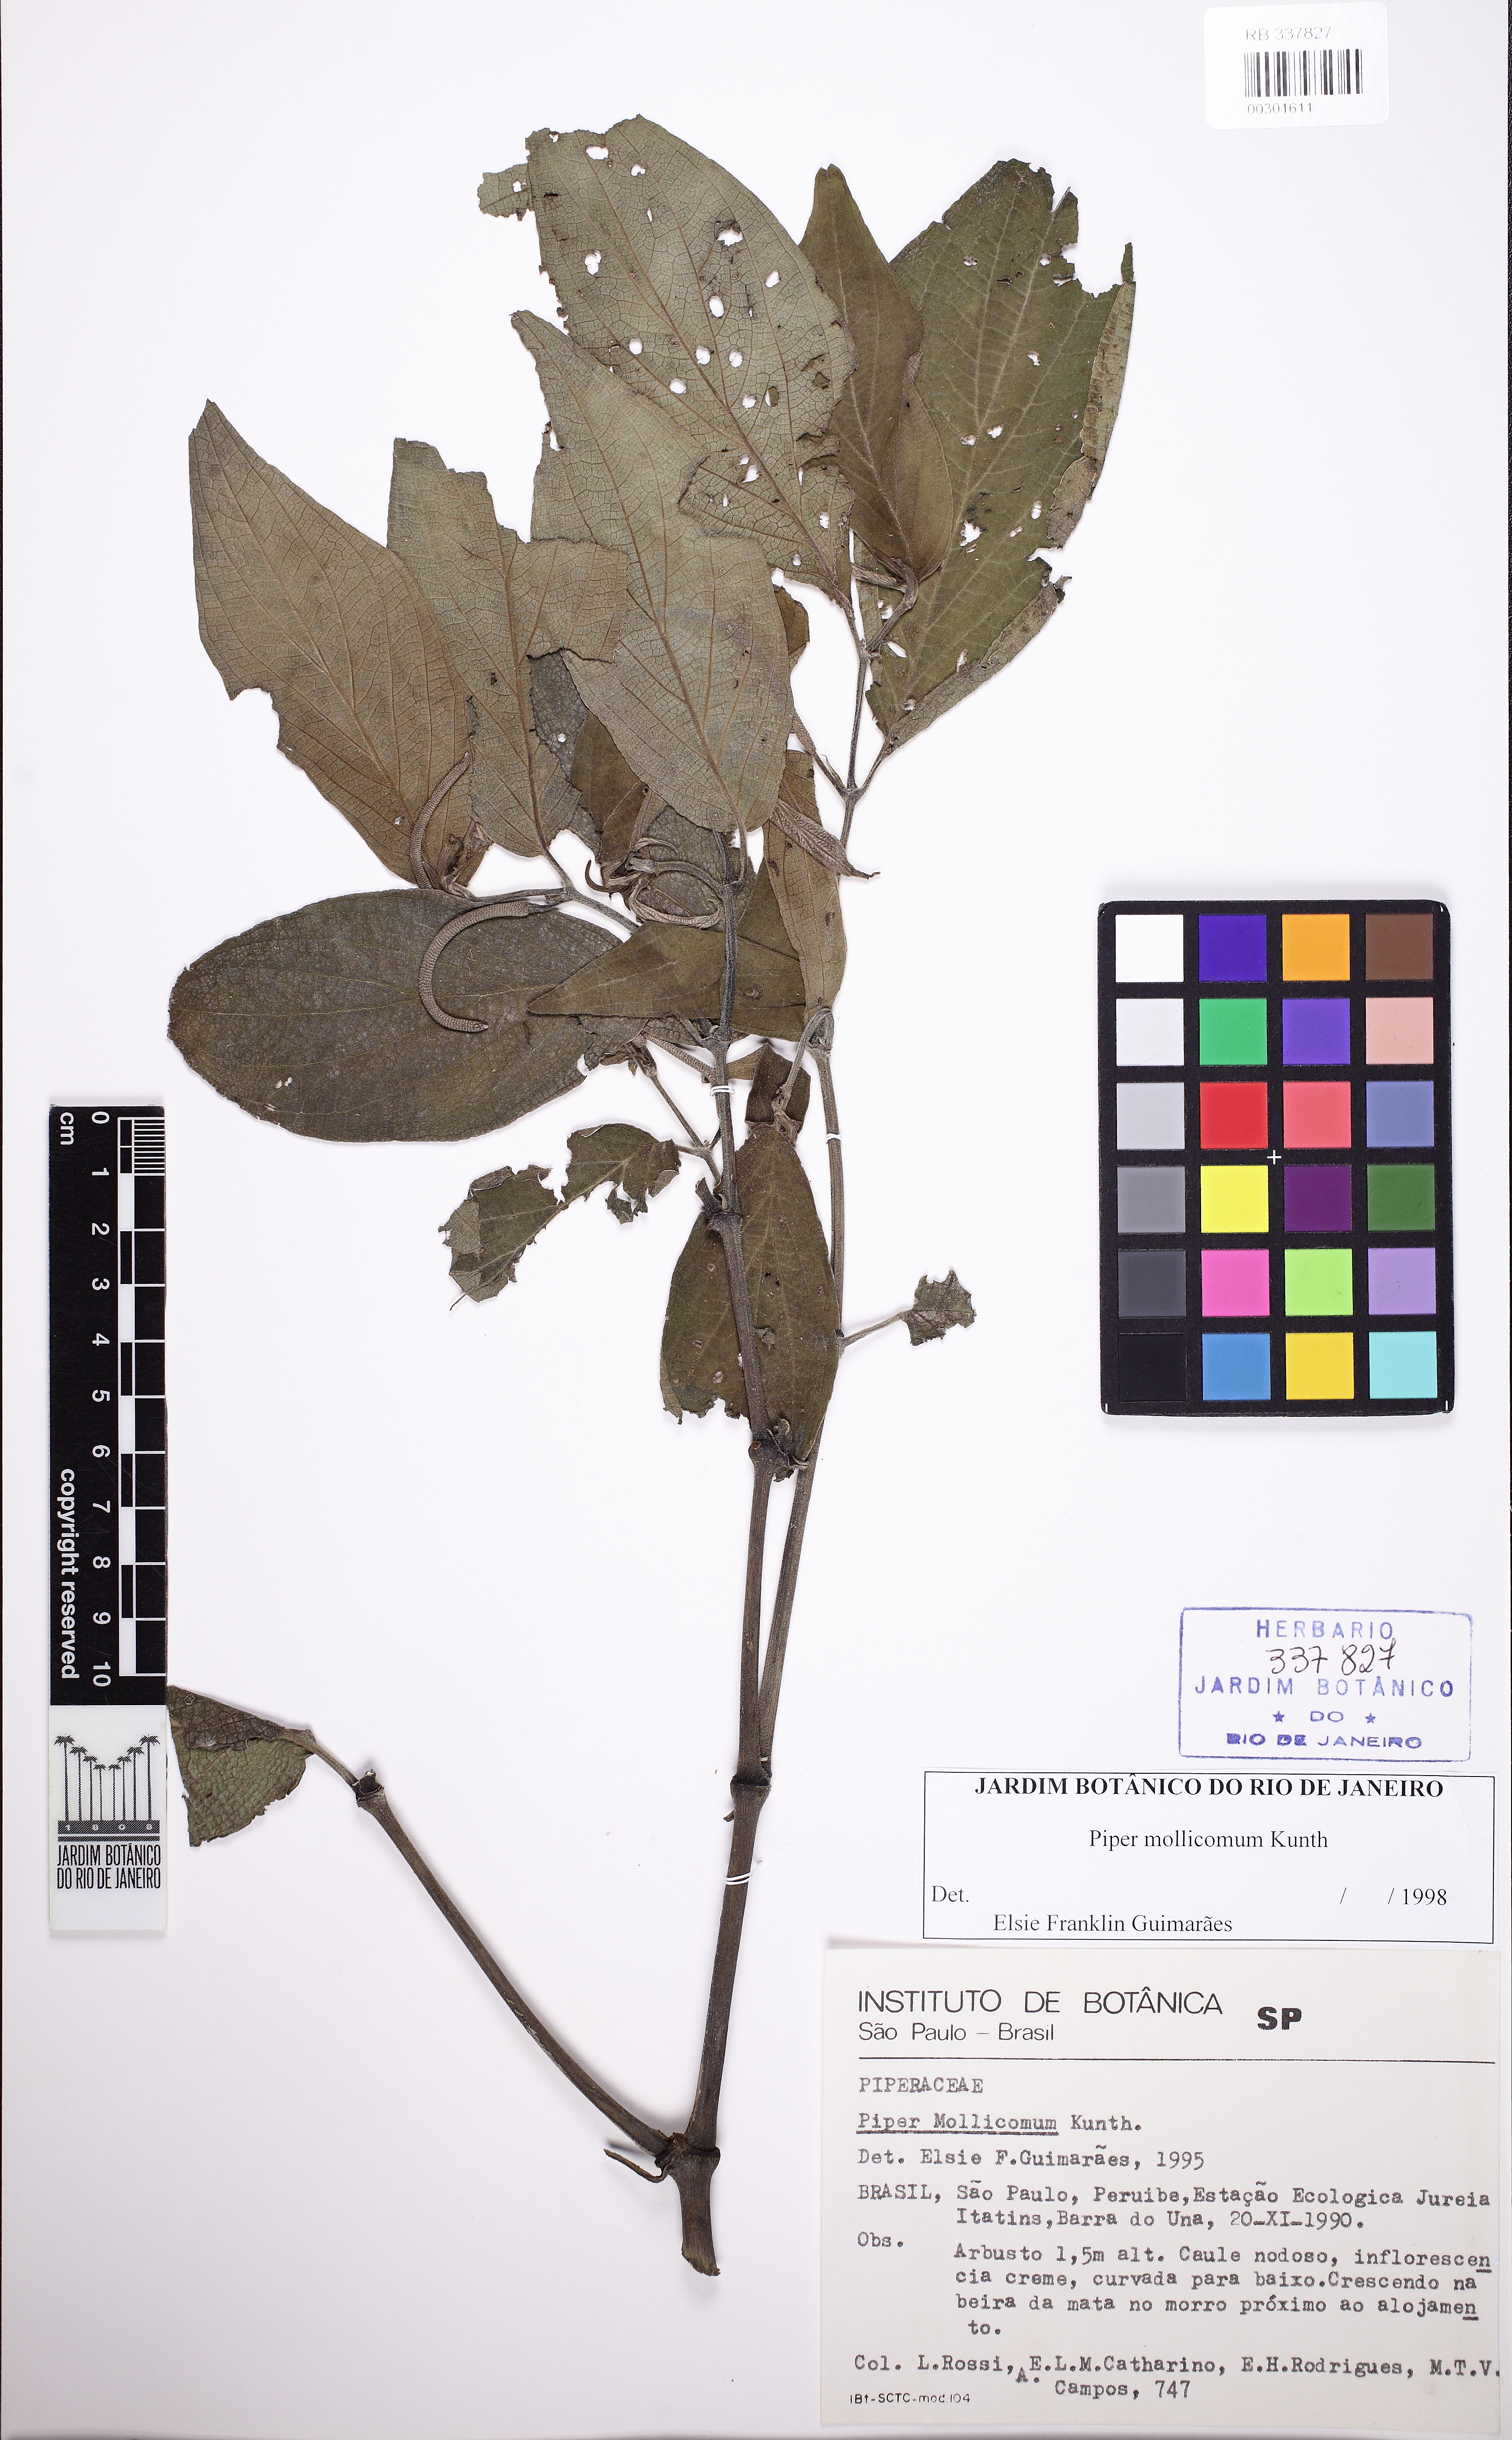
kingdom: Plantae
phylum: Tracheophyta
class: Magnoliopsida
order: Piperales
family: Piperaceae
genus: Piper
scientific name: Piper mollicomum
